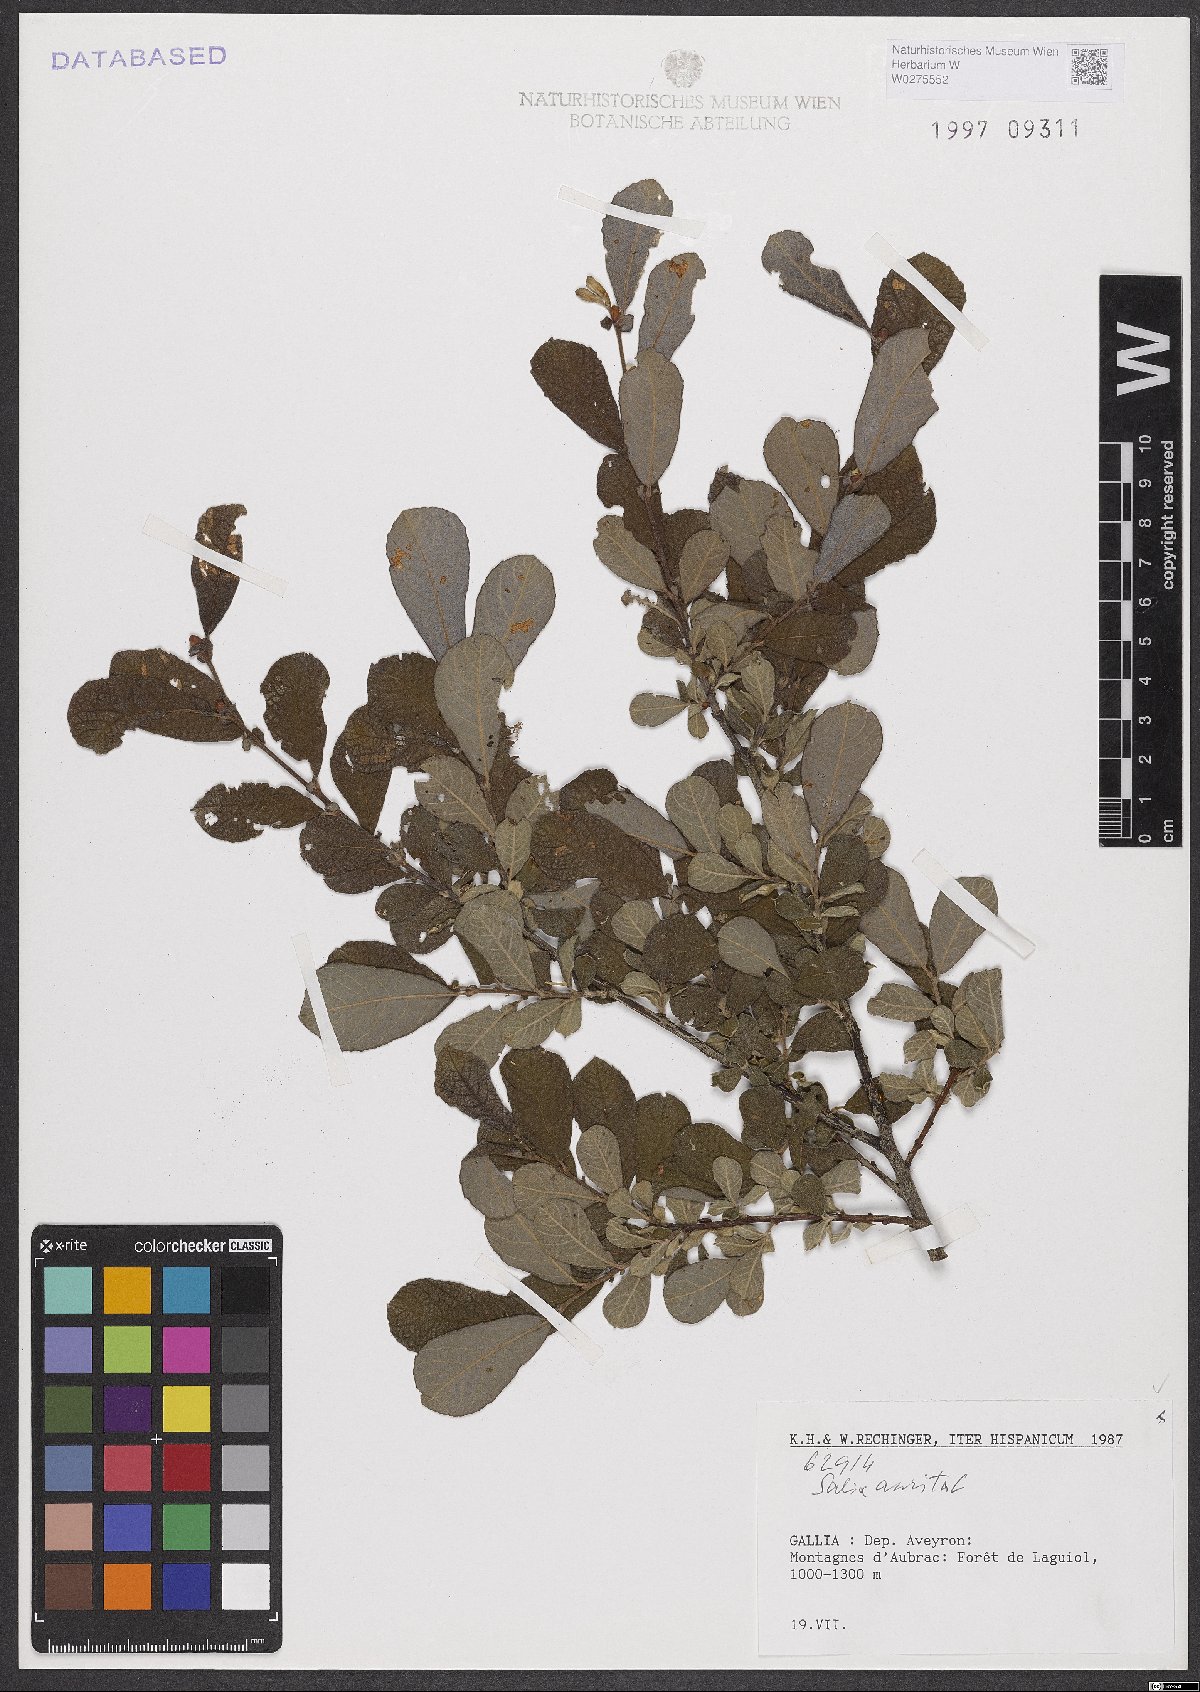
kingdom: Plantae
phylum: Tracheophyta
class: Magnoliopsida
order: Malpighiales
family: Salicaceae
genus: Salix
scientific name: Salix aurita
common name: Eared willow
